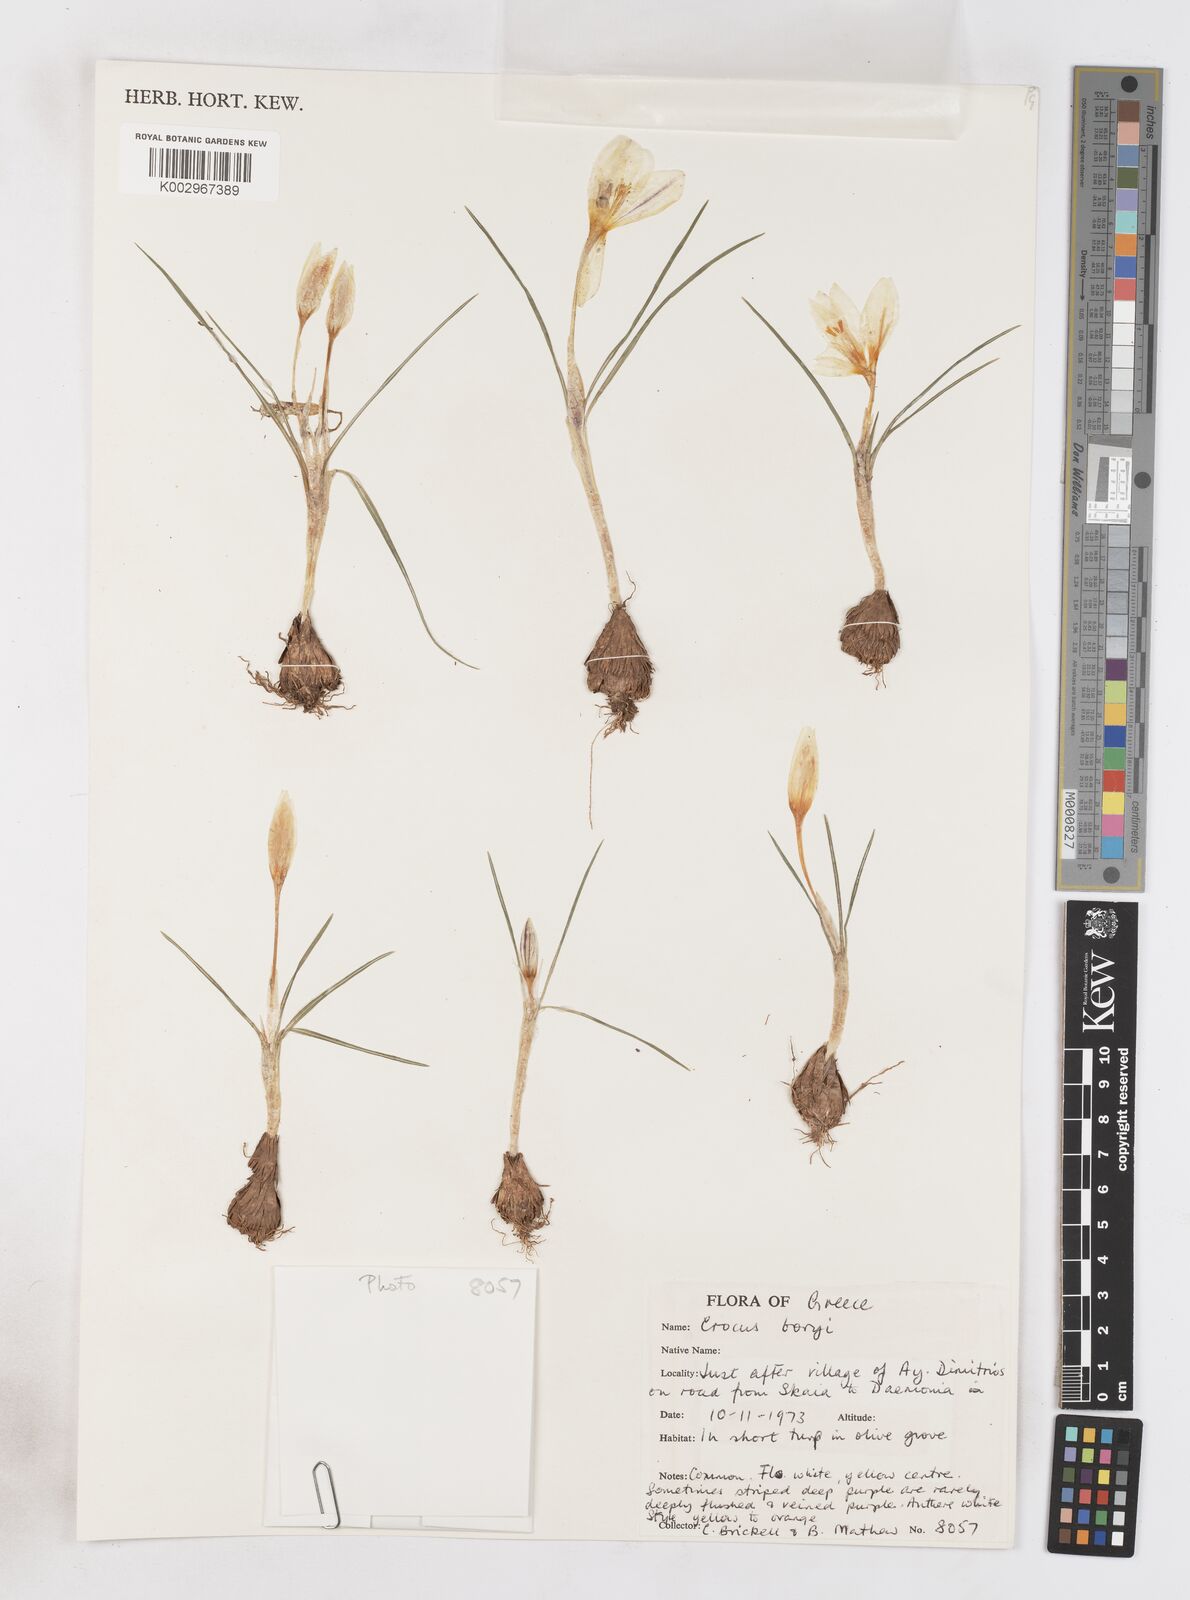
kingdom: Plantae
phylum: Tracheophyta
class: Liliopsida
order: Asparagales
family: Iridaceae
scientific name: Iridaceae
